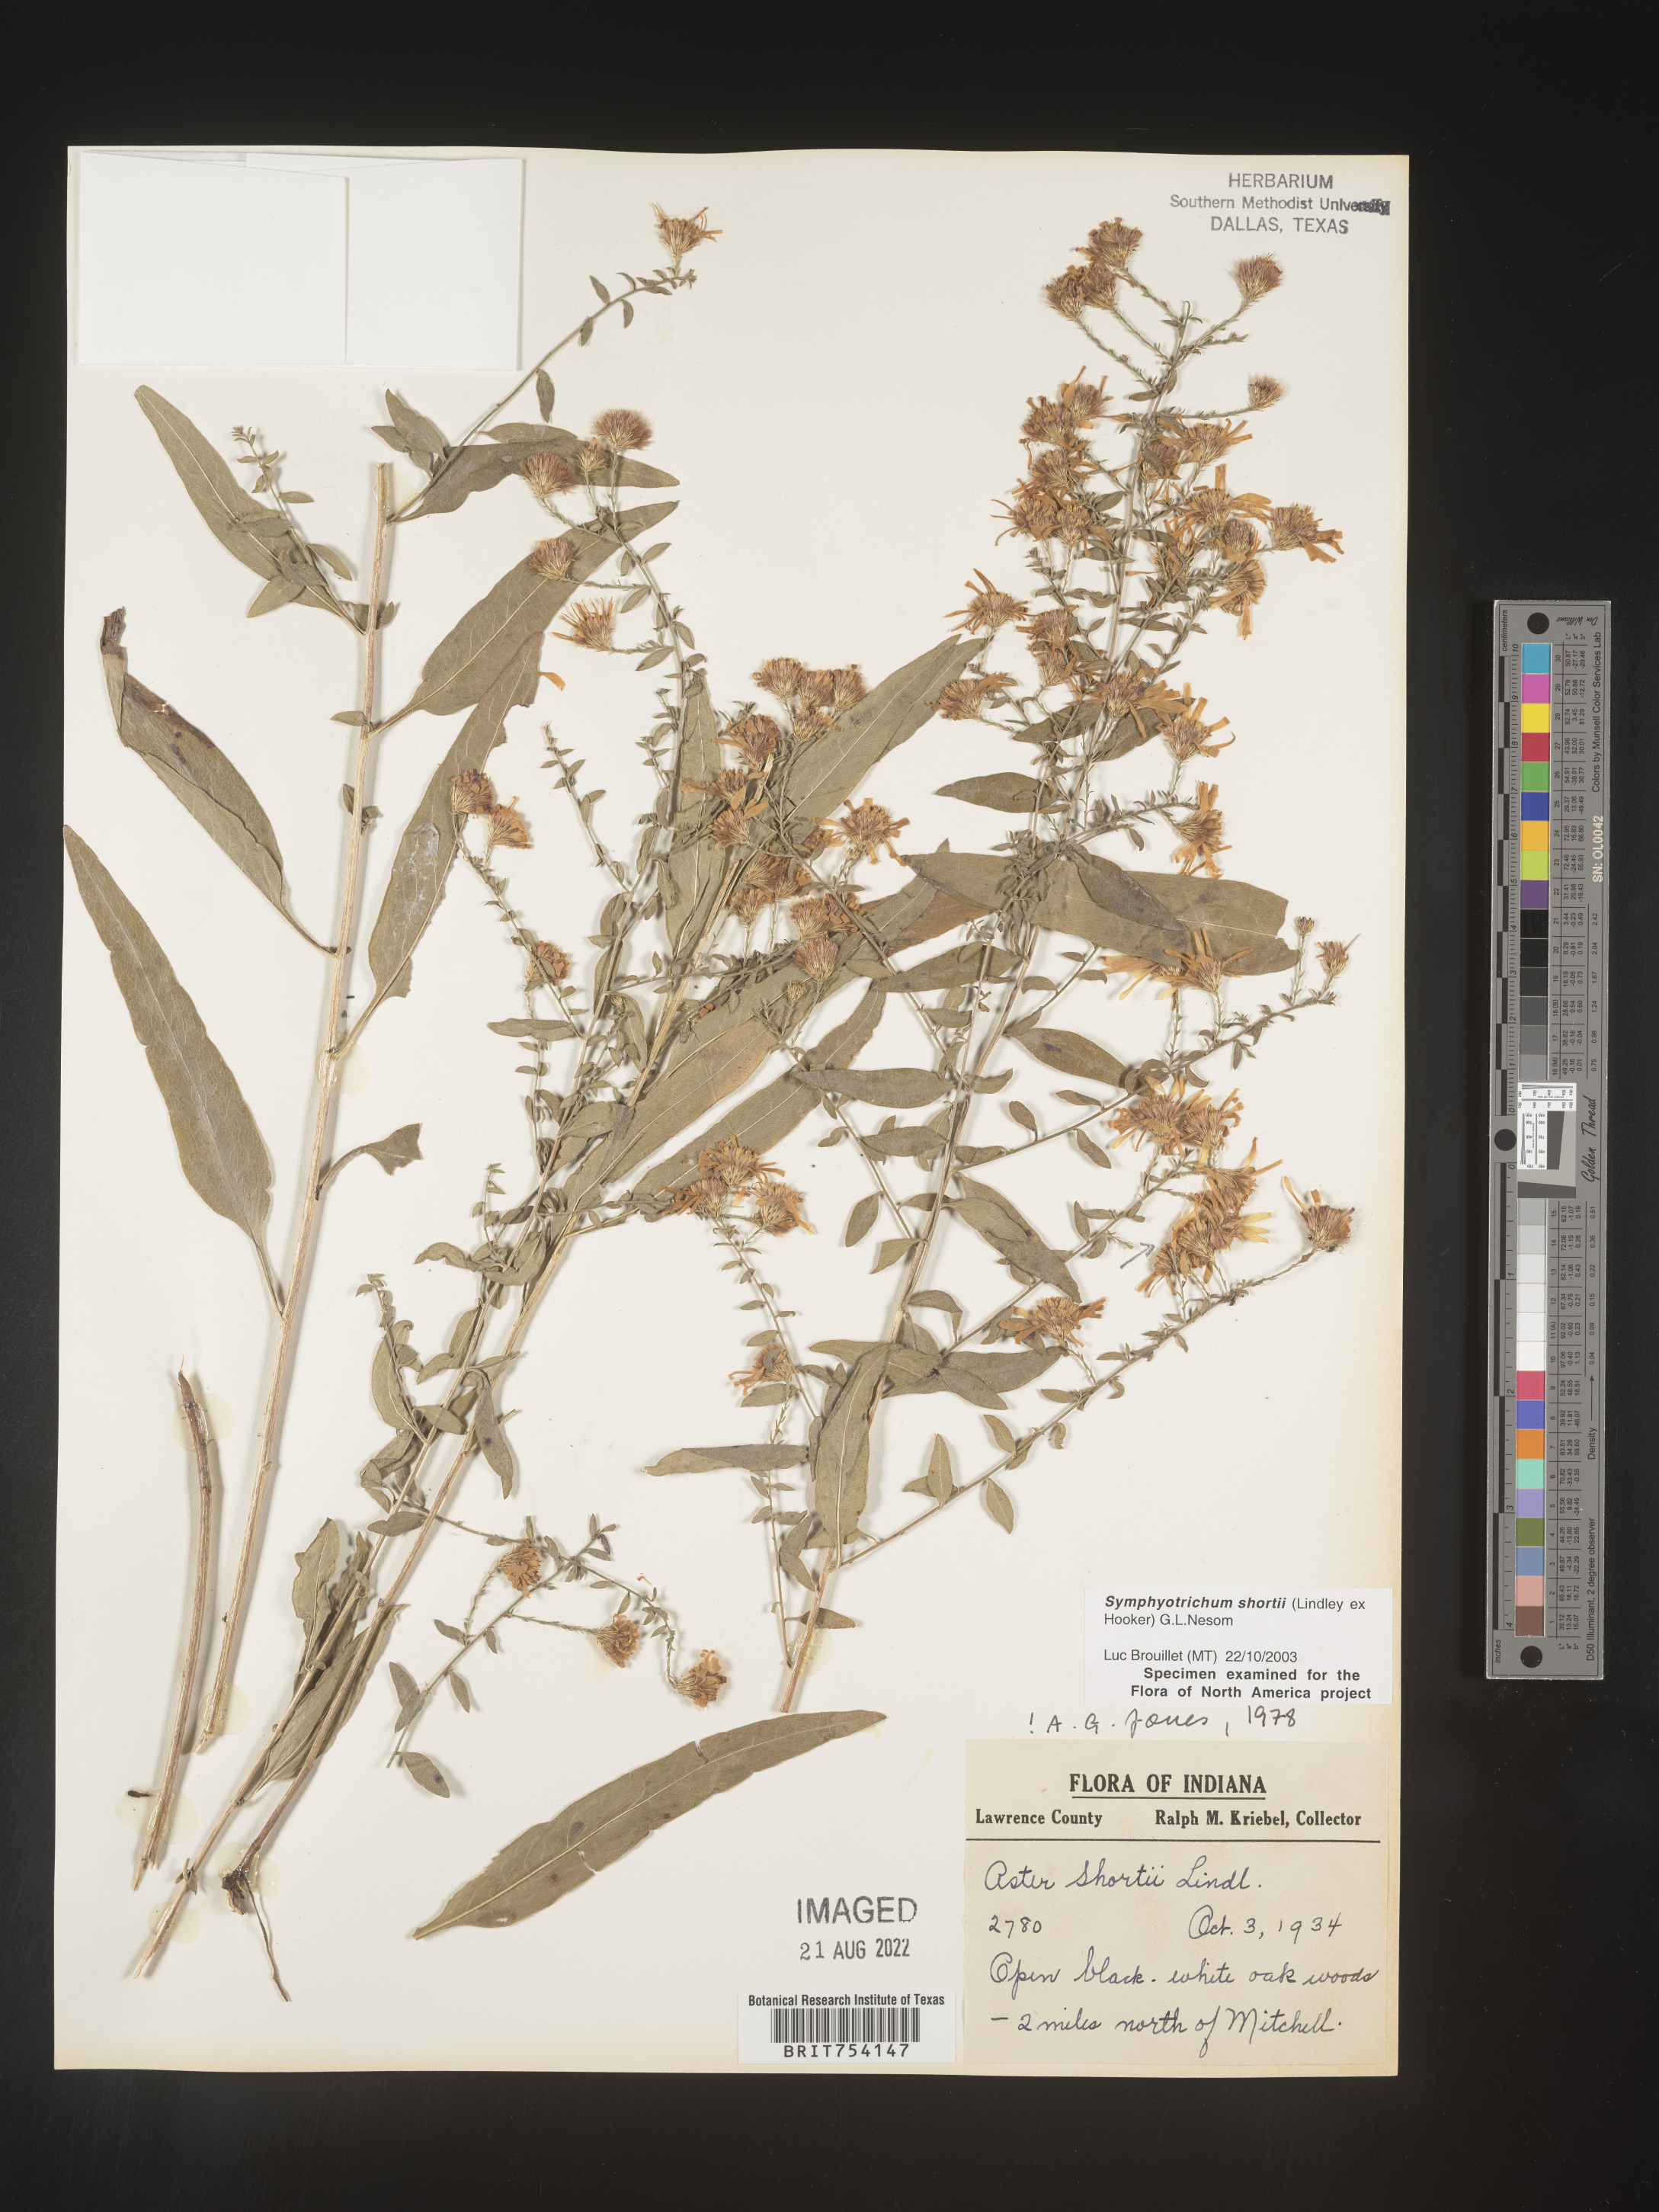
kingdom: Plantae
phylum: Tracheophyta
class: Magnoliopsida
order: Asterales
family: Asteraceae
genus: Symphyotrichum
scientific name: Symphyotrichum shortii
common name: Short's aster
